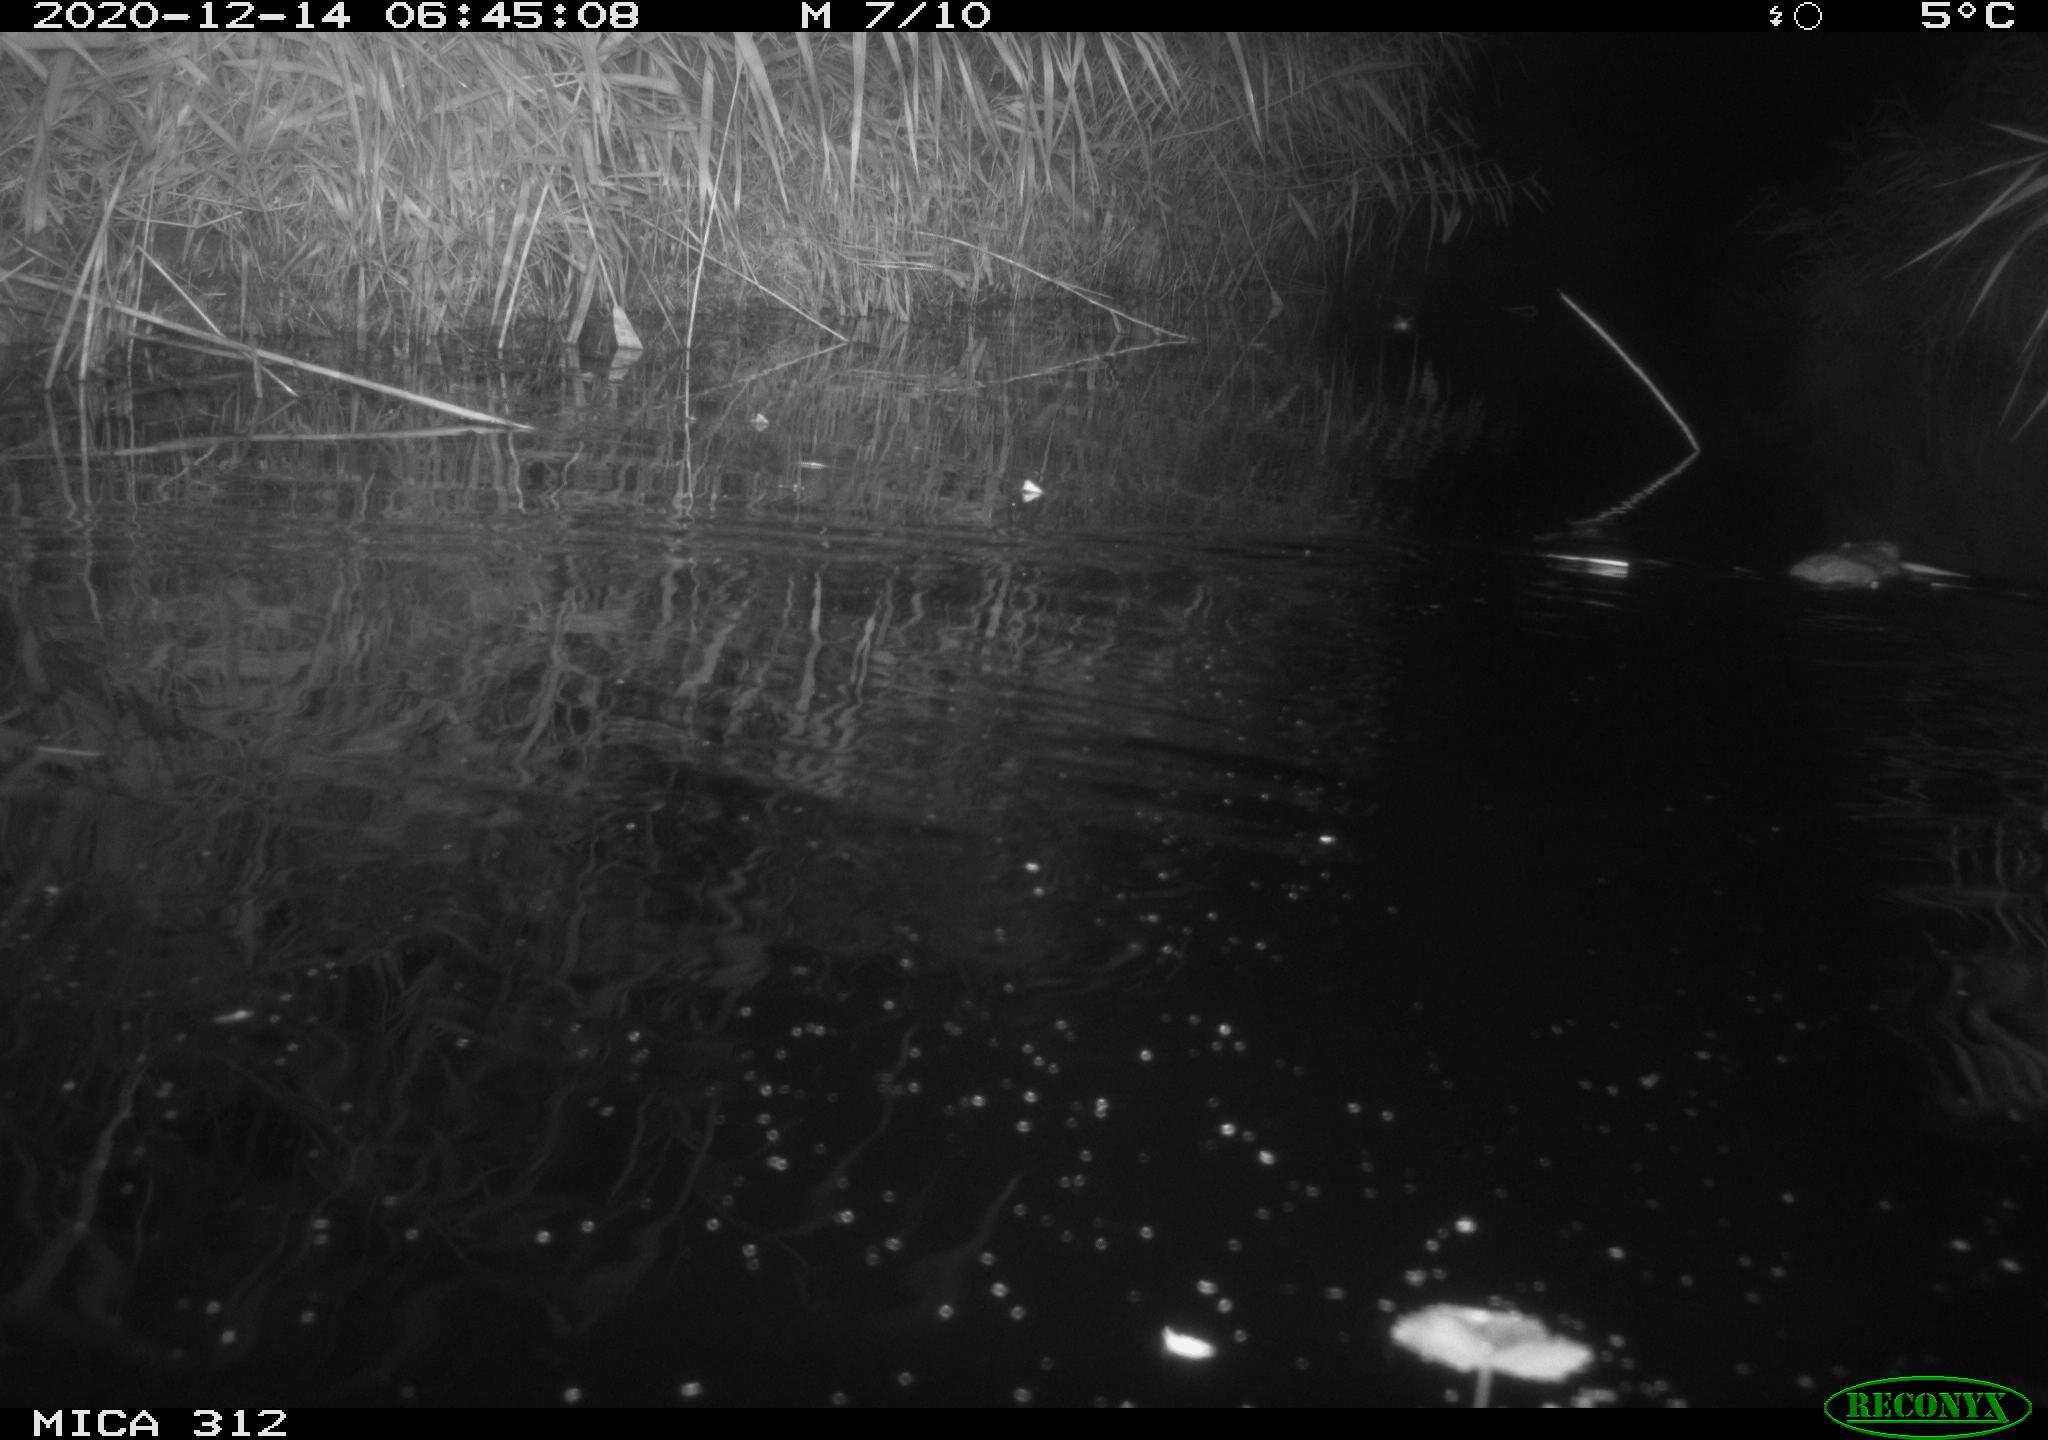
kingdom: Animalia
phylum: Chordata
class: Mammalia
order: Rodentia
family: Muridae
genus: Rattus
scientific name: Rattus norvegicus
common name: Brown rat
